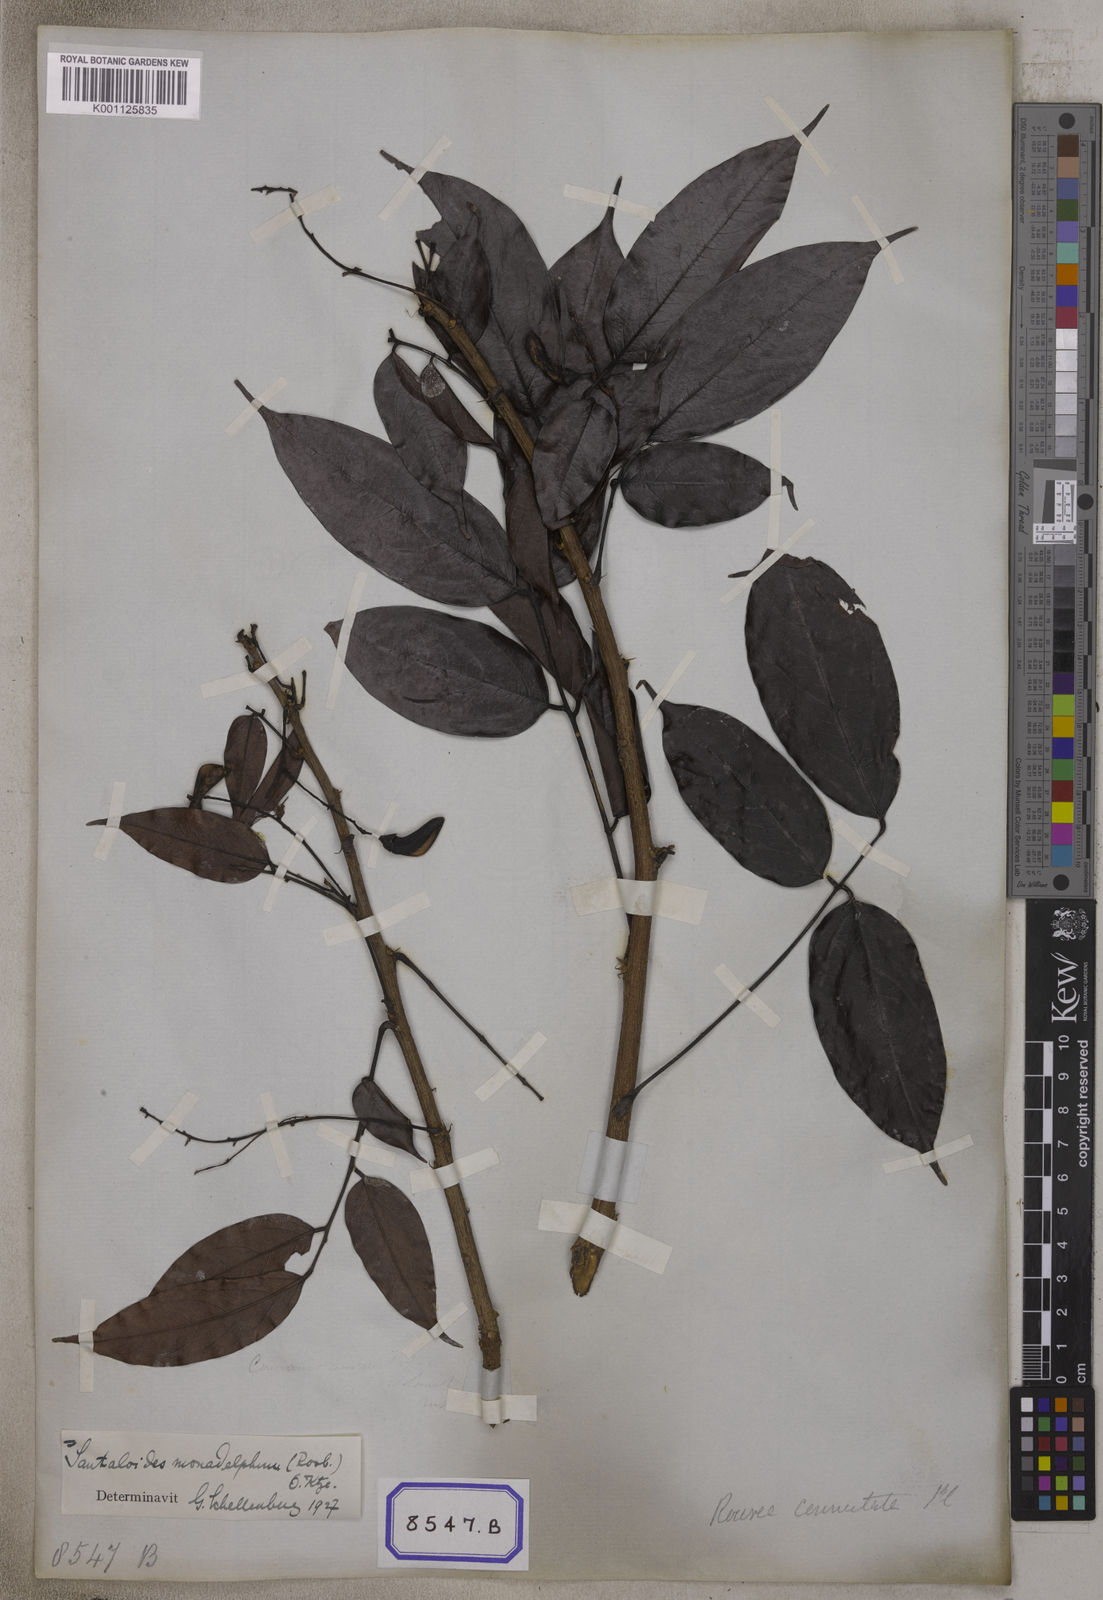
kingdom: Plantae
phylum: Tracheophyta
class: Magnoliopsida
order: Oxalidales
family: Connaraceae
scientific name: Connaraceae
